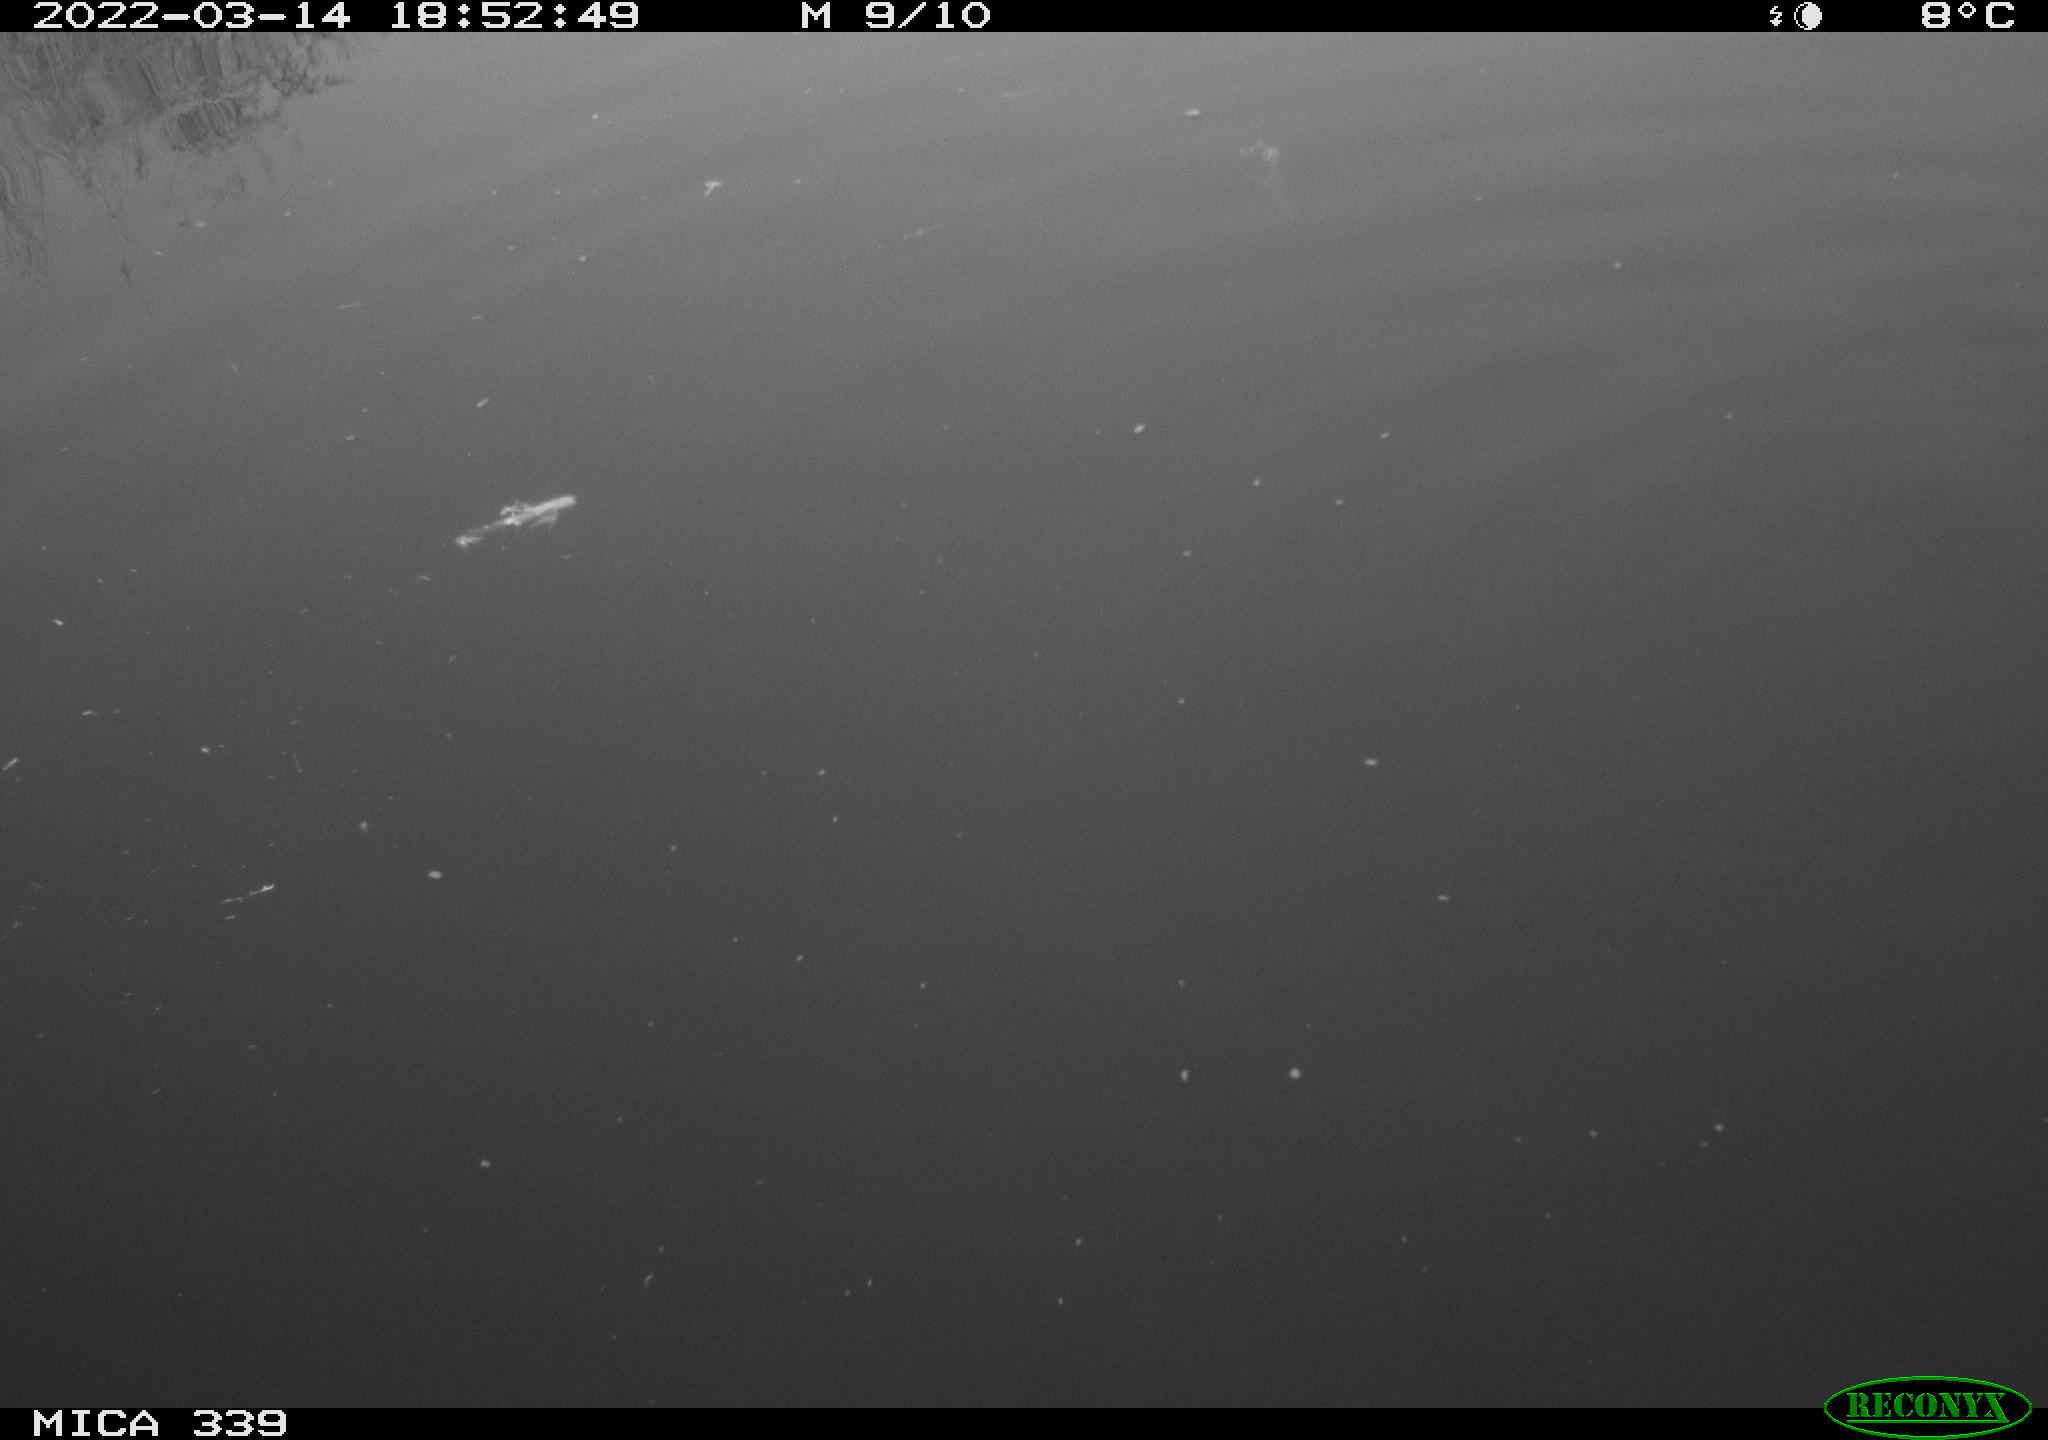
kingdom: Animalia
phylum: Chordata
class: Aves
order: Anseriformes
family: Anatidae
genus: Anas
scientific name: Anas platyrhynchos
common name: Mallard
